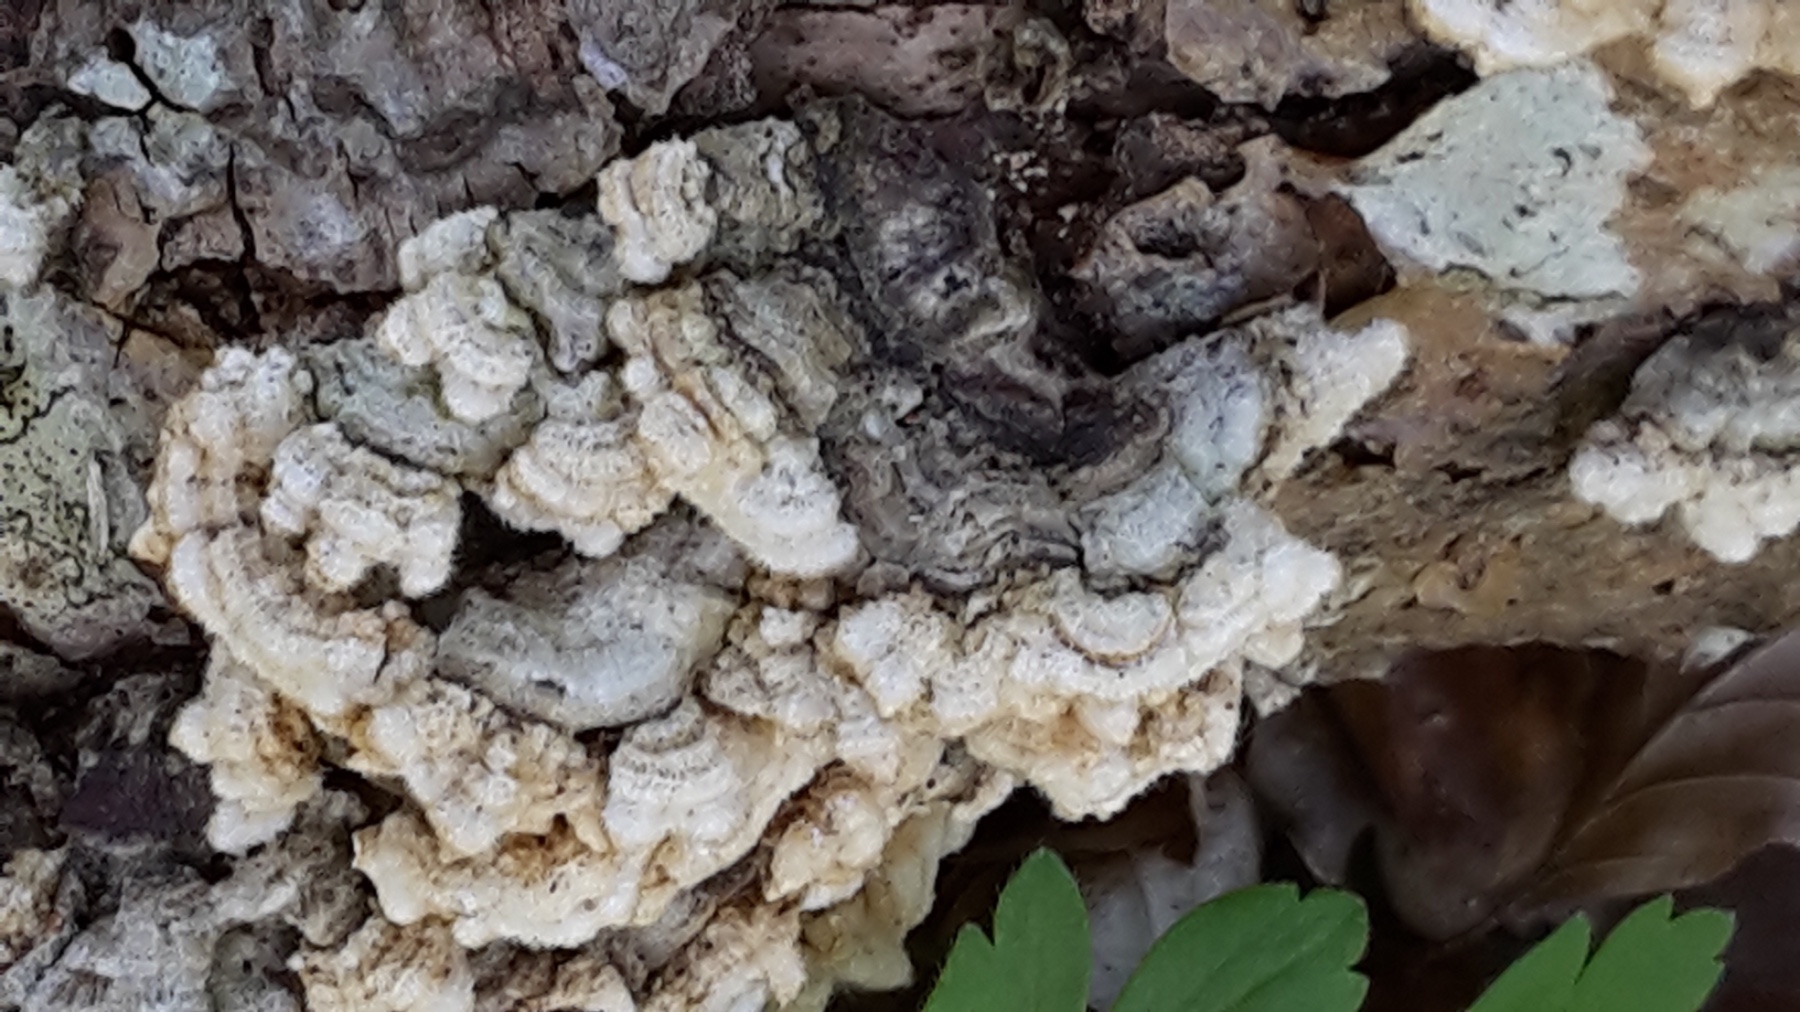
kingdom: Fungi
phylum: Basidiomycota
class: Agaricomycetes
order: Russulales
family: Stereaceae
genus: Stereum
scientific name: Stereum hirsutum
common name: håret lædersvamp
